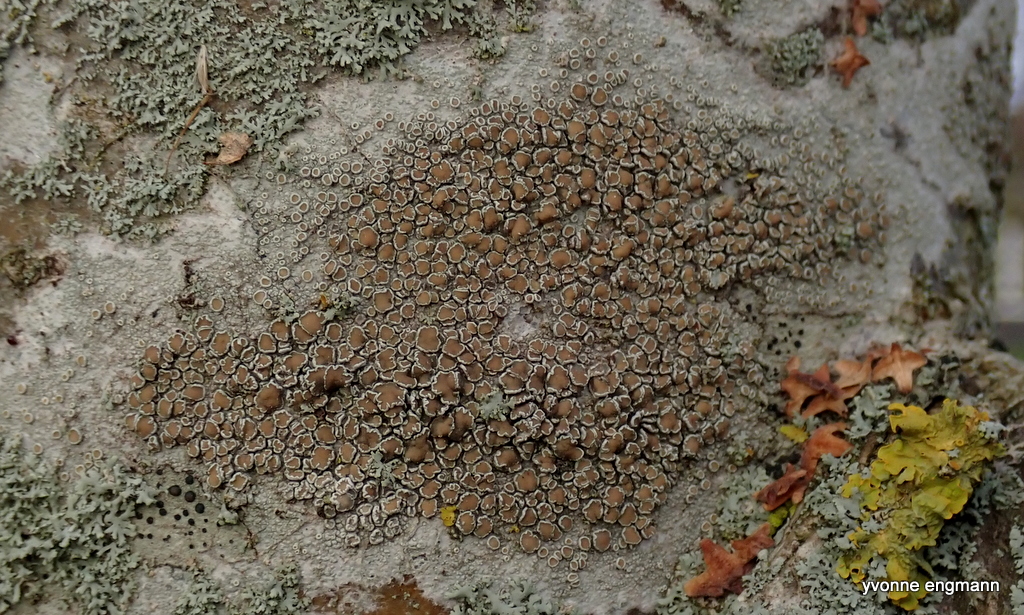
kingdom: Fungi
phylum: Ascomycota
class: Lecanoromycetes
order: Lecanorales
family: Lecanoraceae
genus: Lecanora
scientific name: Lecanora chlarotera
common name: brun kantskivelav
